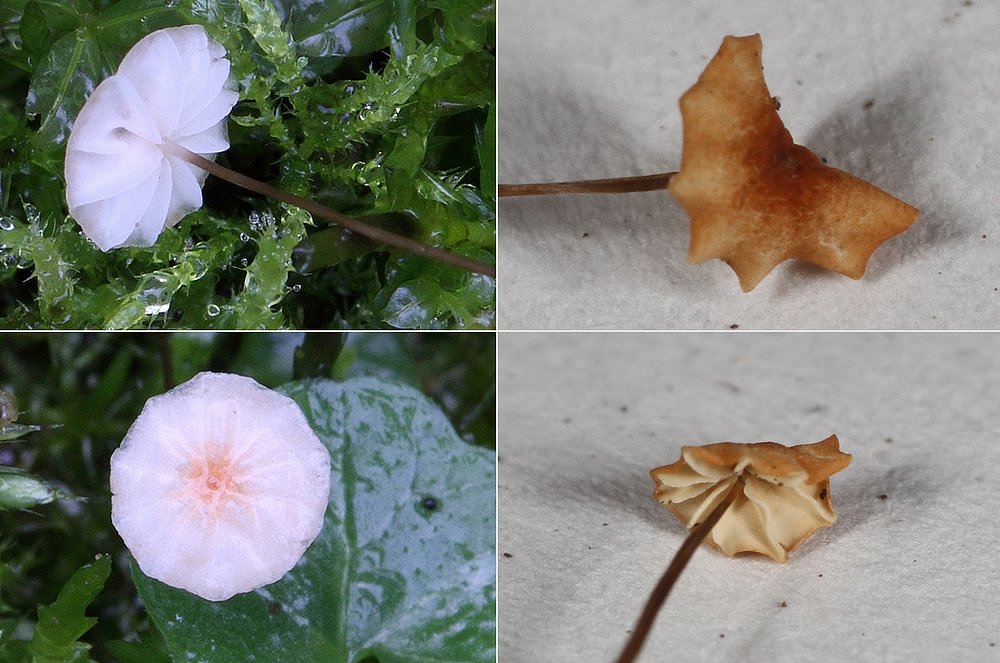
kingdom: Fungi
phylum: Basidiomycota
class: Agaricomycetes
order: Agaricales
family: Marasmiaceae
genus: Marasmius
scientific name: Marasmius curreyi
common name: teglrød bruskhat
